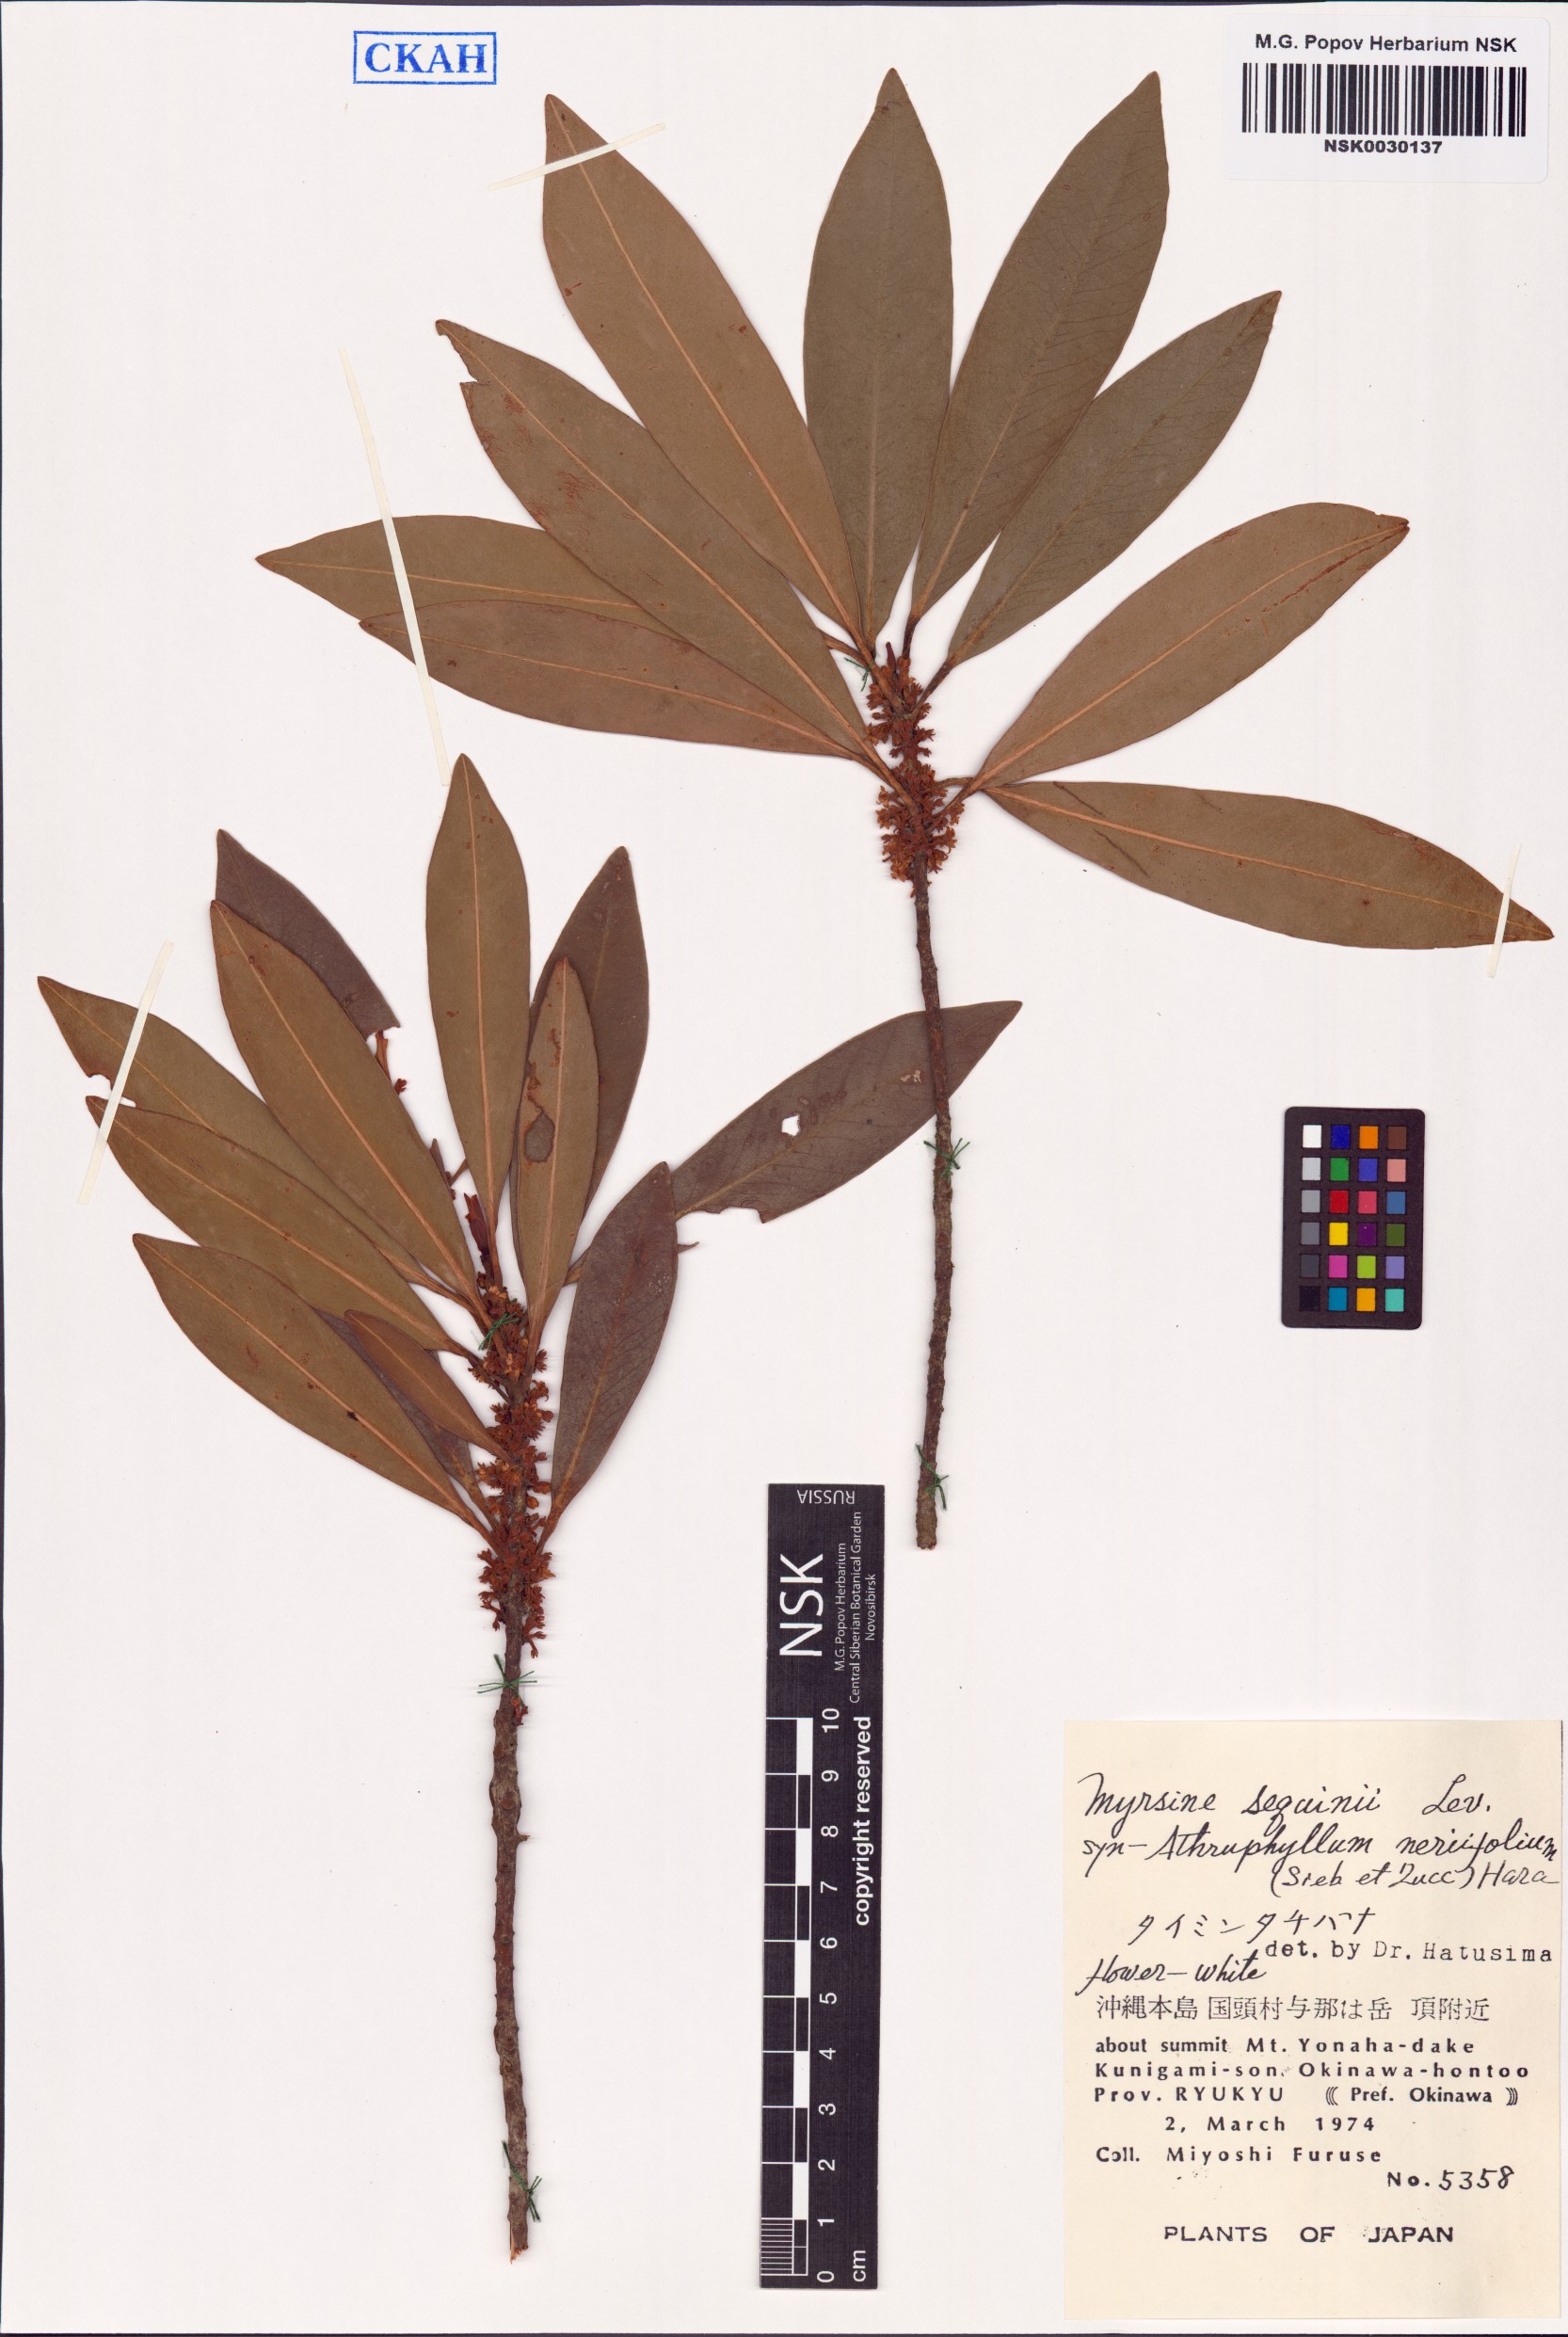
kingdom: Plantae
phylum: Tracheophyta
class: Magnoliopsida
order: Ericales
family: Primulaceae
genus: Myrsine
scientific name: Myrsine seguinii
